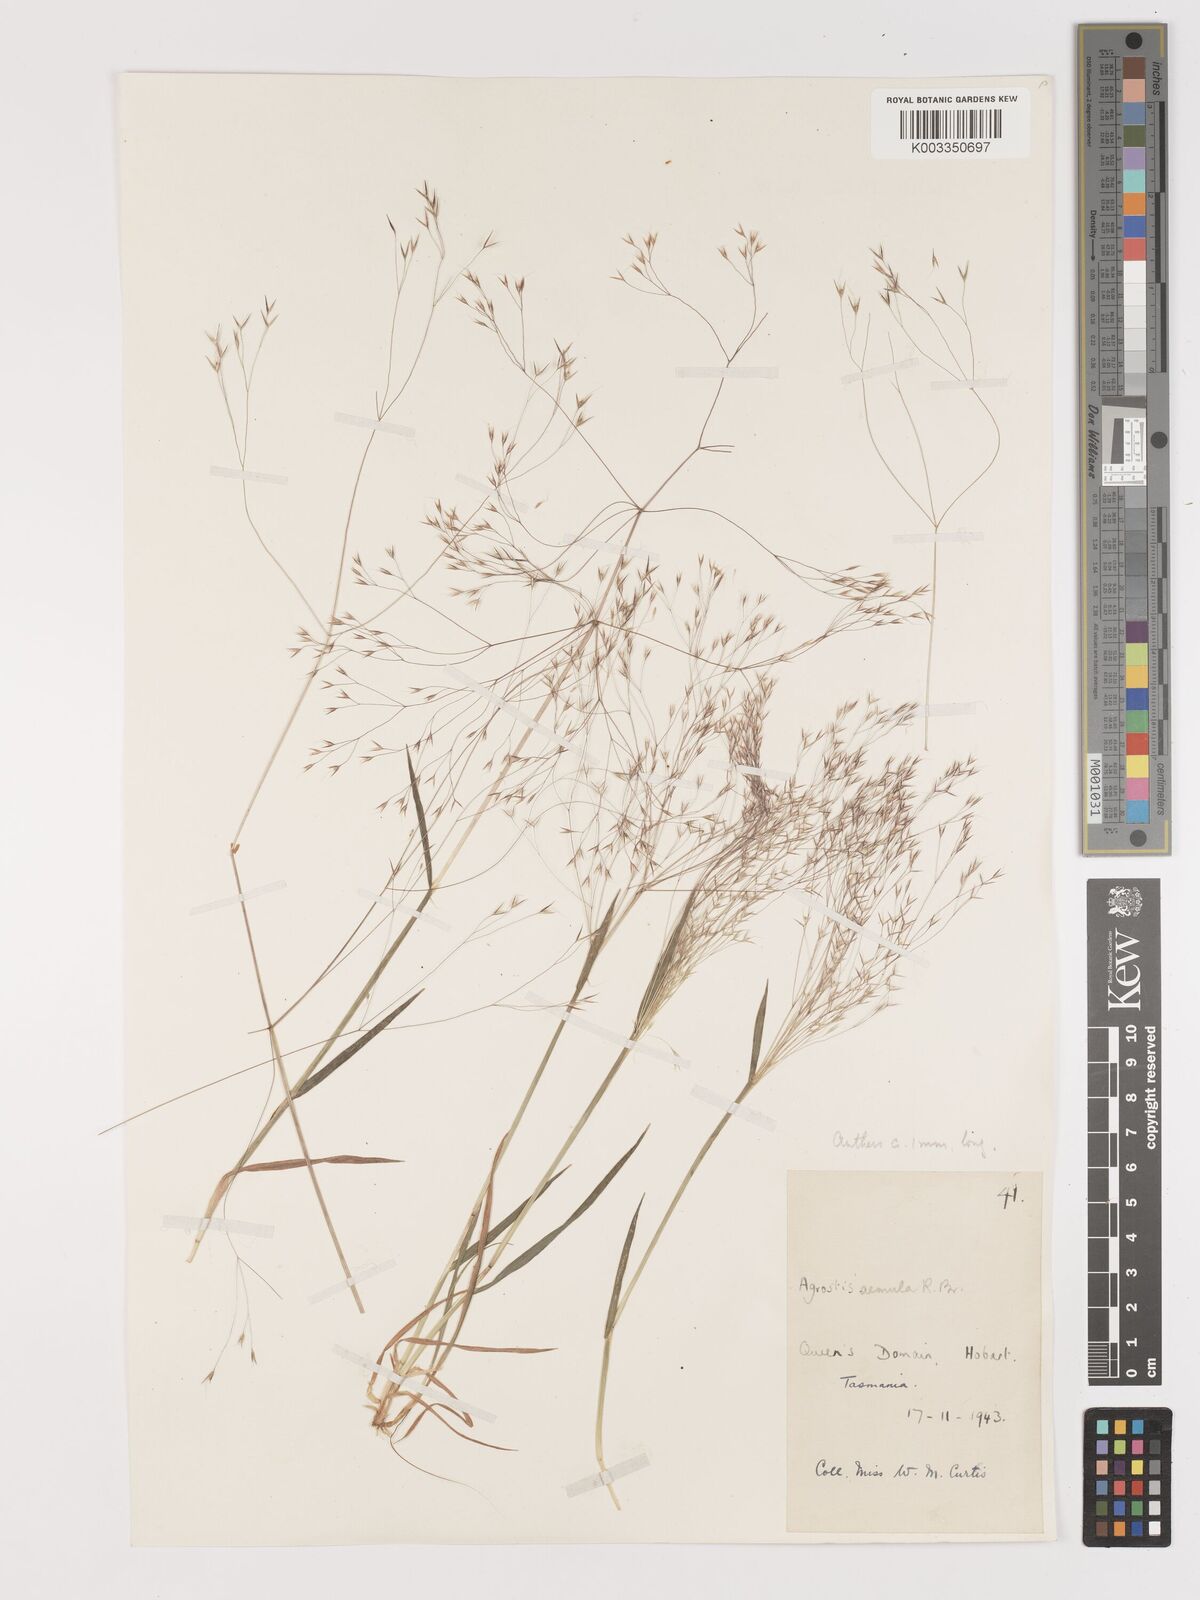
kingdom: Plantae
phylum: Tracheophyta
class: Liliopsida
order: Poales
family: Poaceae
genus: Lachnagrostis
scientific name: Lachnagrostis aemula
